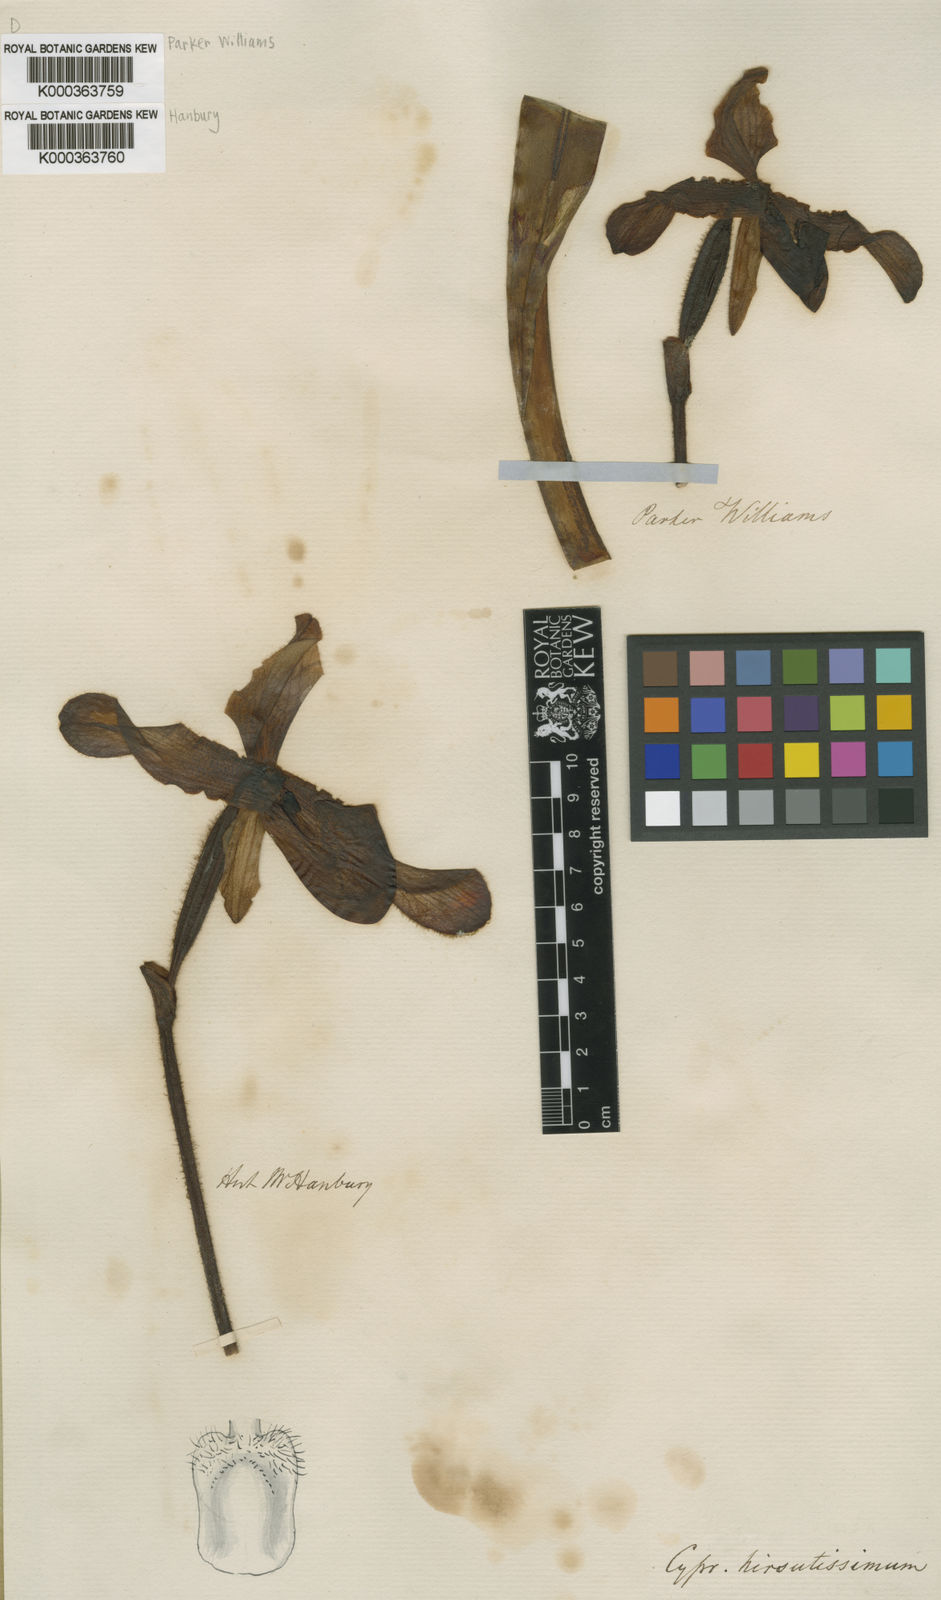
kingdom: Plantae
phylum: Tracheophyta
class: Liliopsida
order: Asparagales
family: Orchidaceae
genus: Paphiopedilum
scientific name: Paphiopedilum hirsutissimum
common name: Shaggy paphiopedilum
